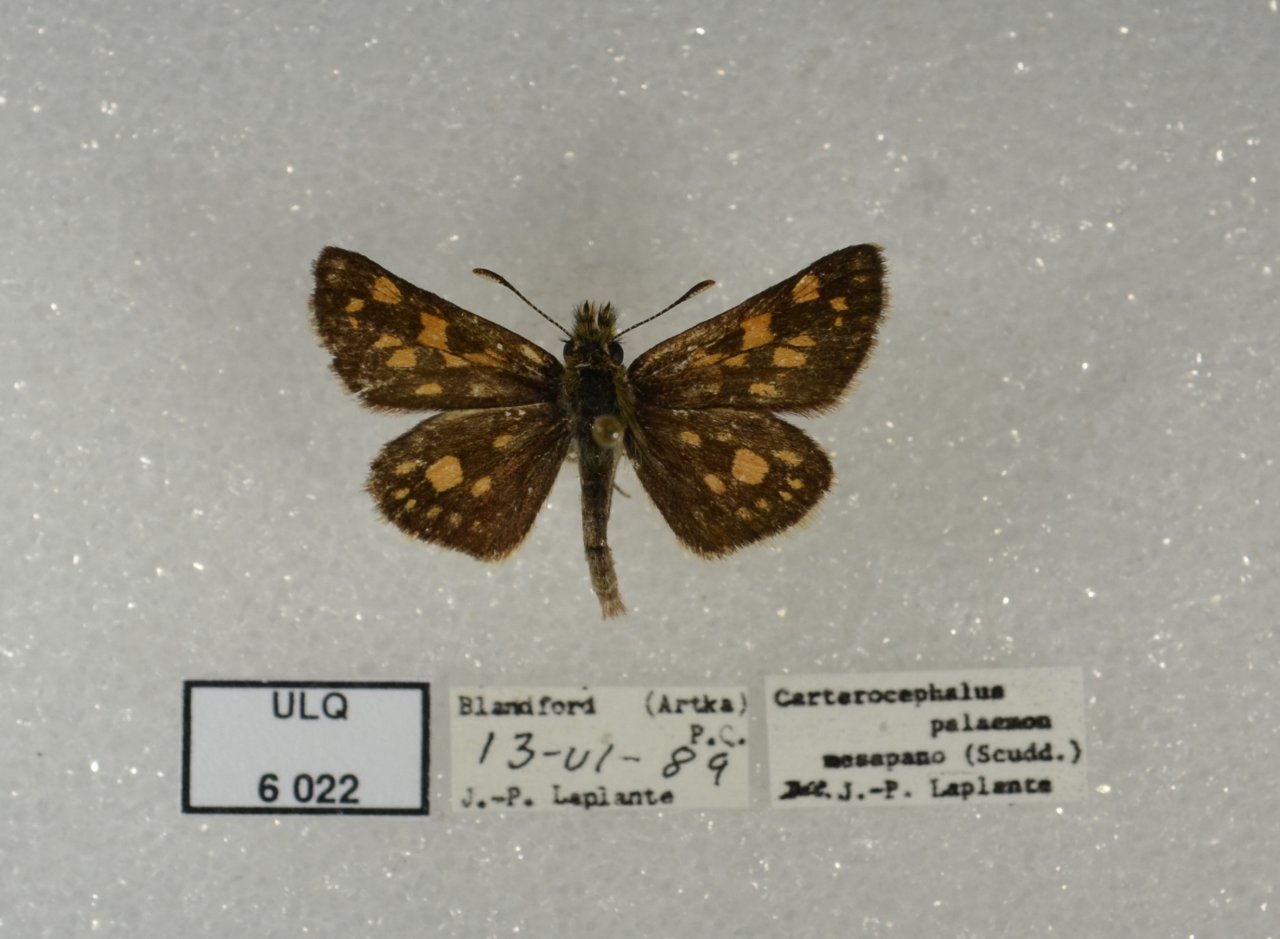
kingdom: Animalia
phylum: Arthropoda
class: Insecta
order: Lepidoptera
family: Hesperiidae
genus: Carterocephalus
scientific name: Carterocephalus palaemon
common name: Chequered Skipper
